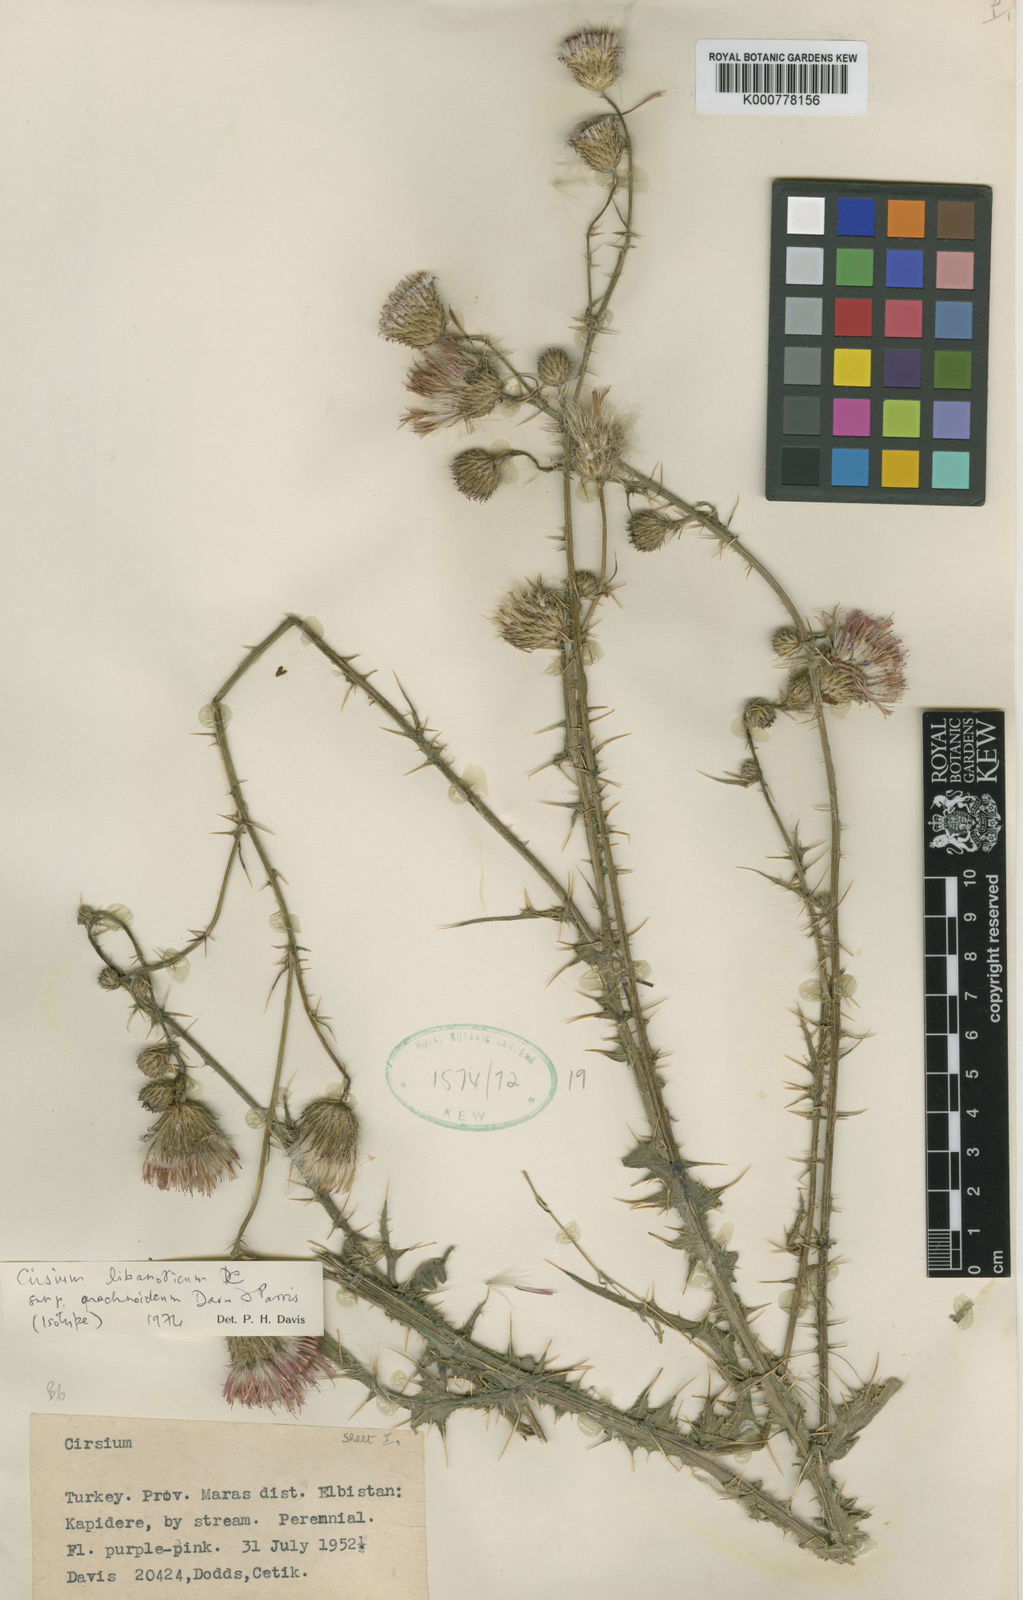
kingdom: Plantae
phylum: Tracheophyta
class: Magnoliopsida
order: Asterales
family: Asteraceae
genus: Cirsium
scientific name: Cirsium dissectum
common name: Meadow thistle
